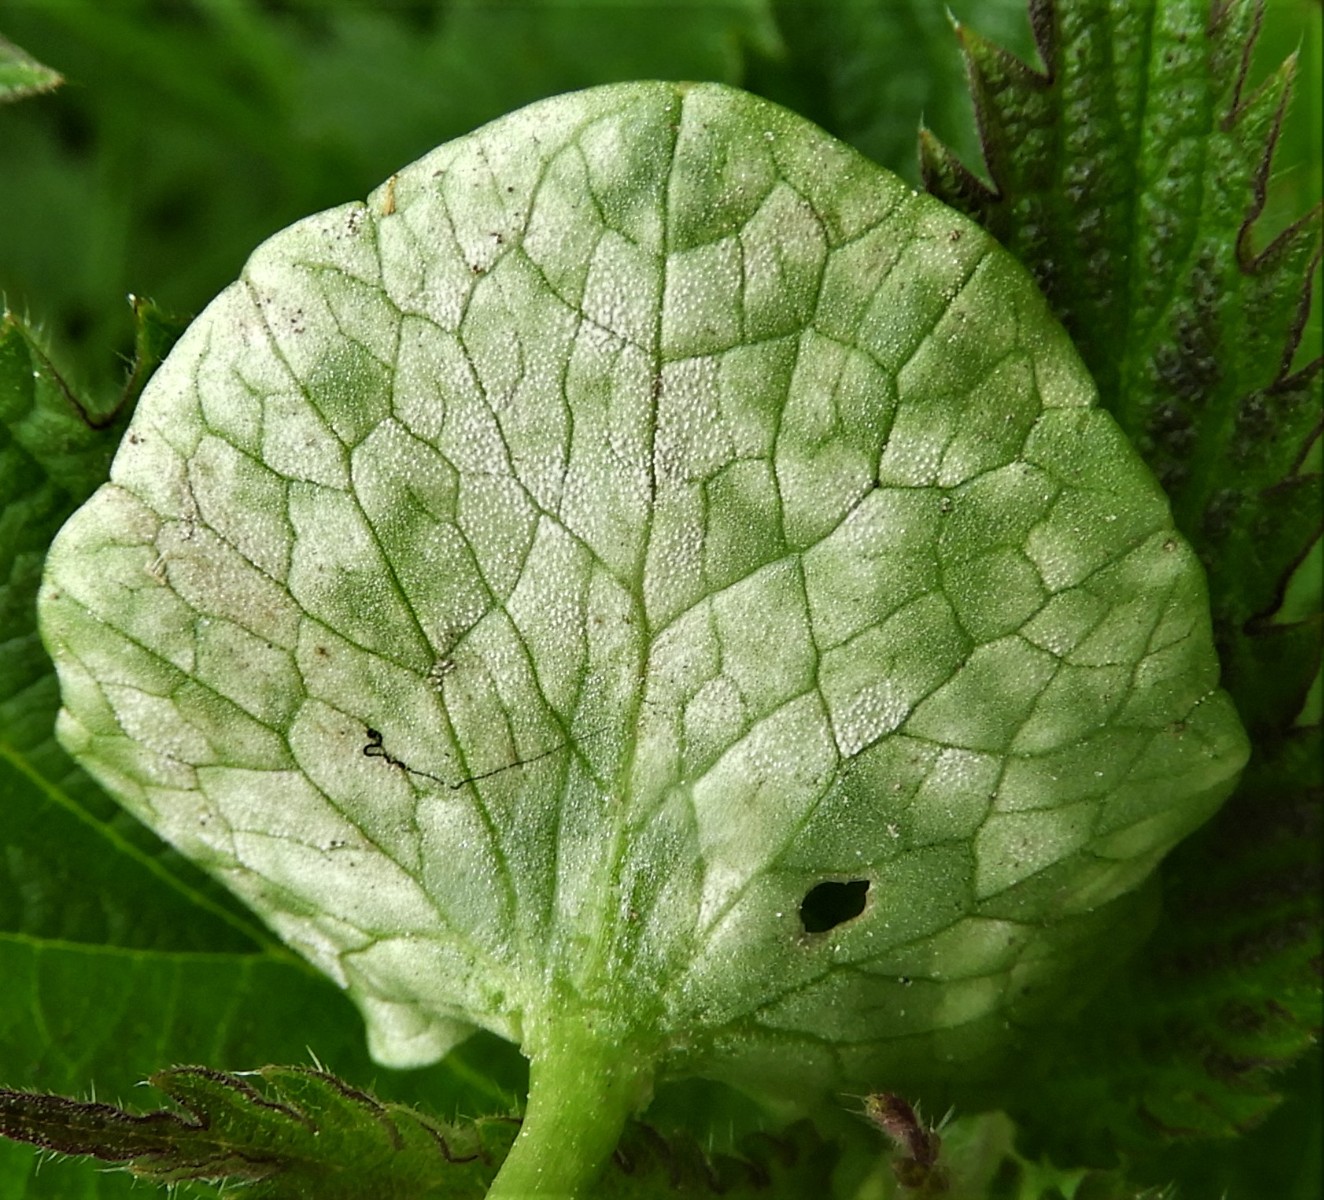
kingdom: Fungi
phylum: Basidiomycota
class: Exobasidiomycetes
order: Entylomatales
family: Entylomataceae
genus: Entyloma
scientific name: Entyloma ficariae
